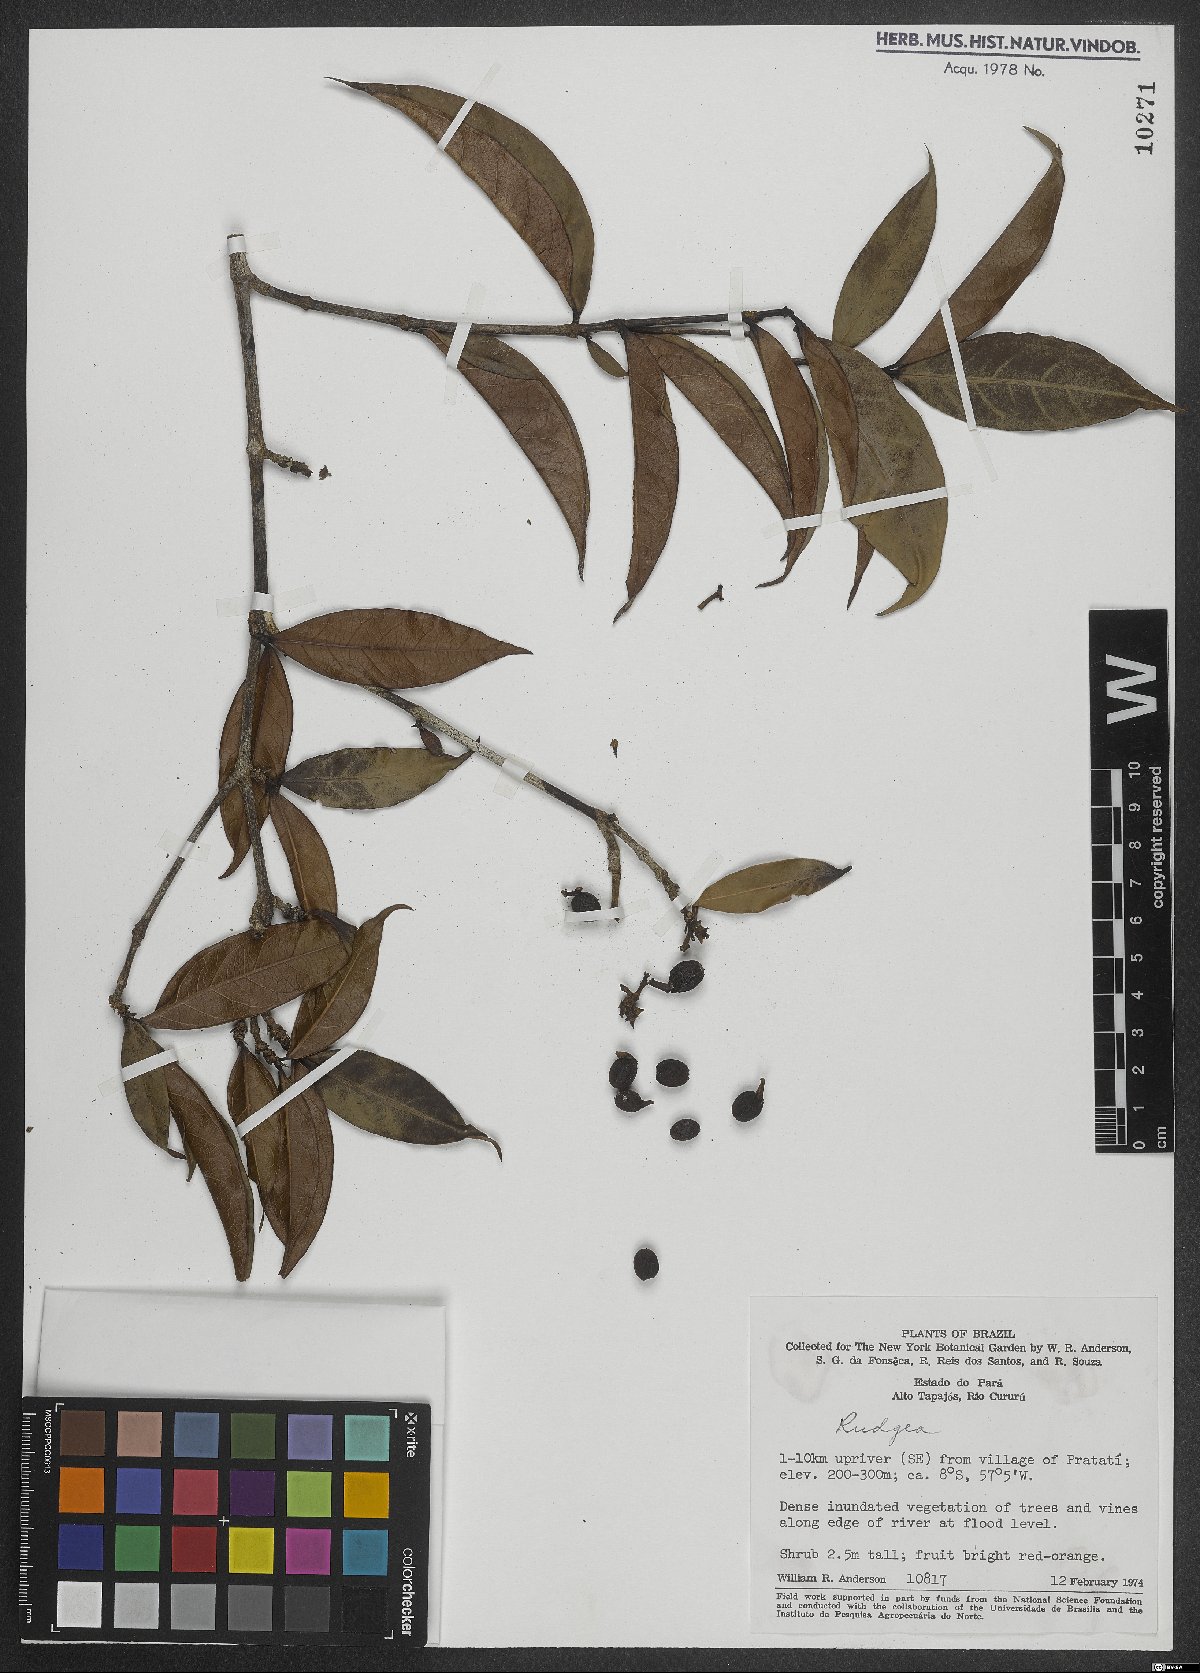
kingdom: Plantae
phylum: Tracheophyta
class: Magnoliopsida
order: Gentianales
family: Rubiaceae
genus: Rudgea
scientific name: Rudgea
